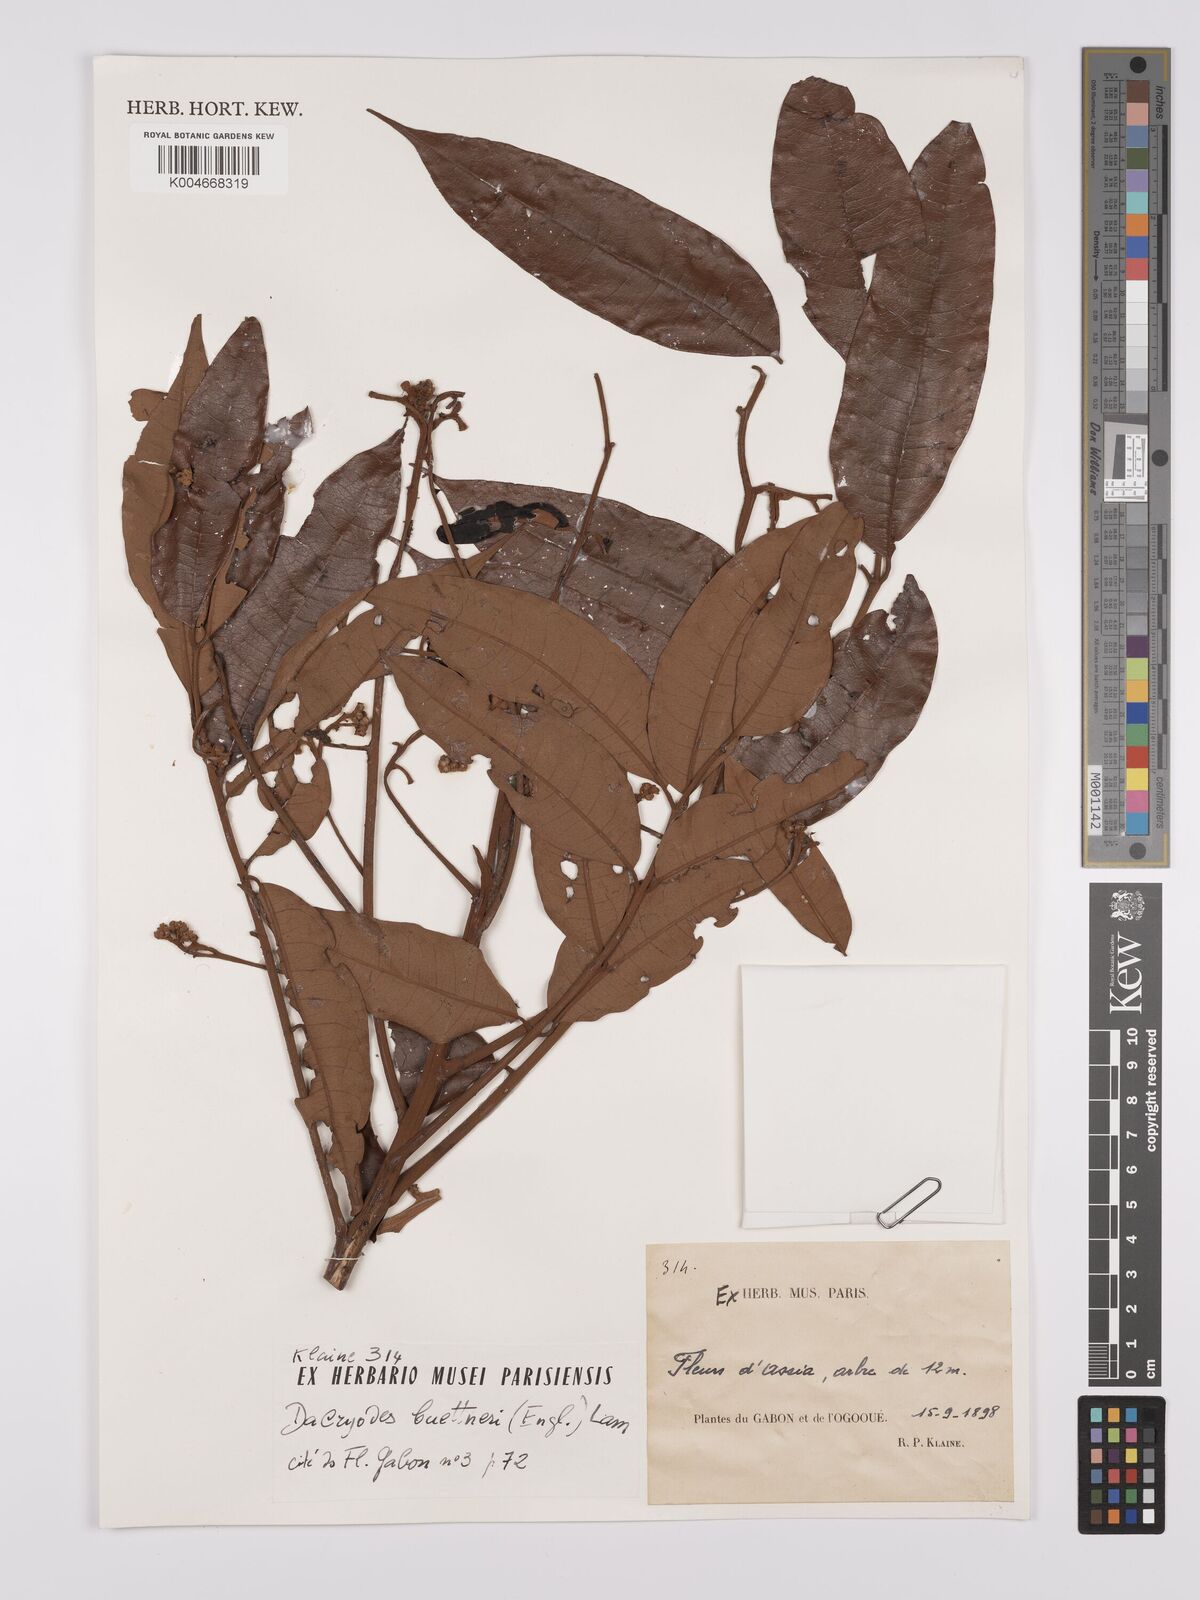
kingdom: Plantae
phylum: Tracheophyta
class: Magnoliopsida
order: Sapindales
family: Burseraceae
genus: Pachylobus
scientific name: Pachylobus buettneri
